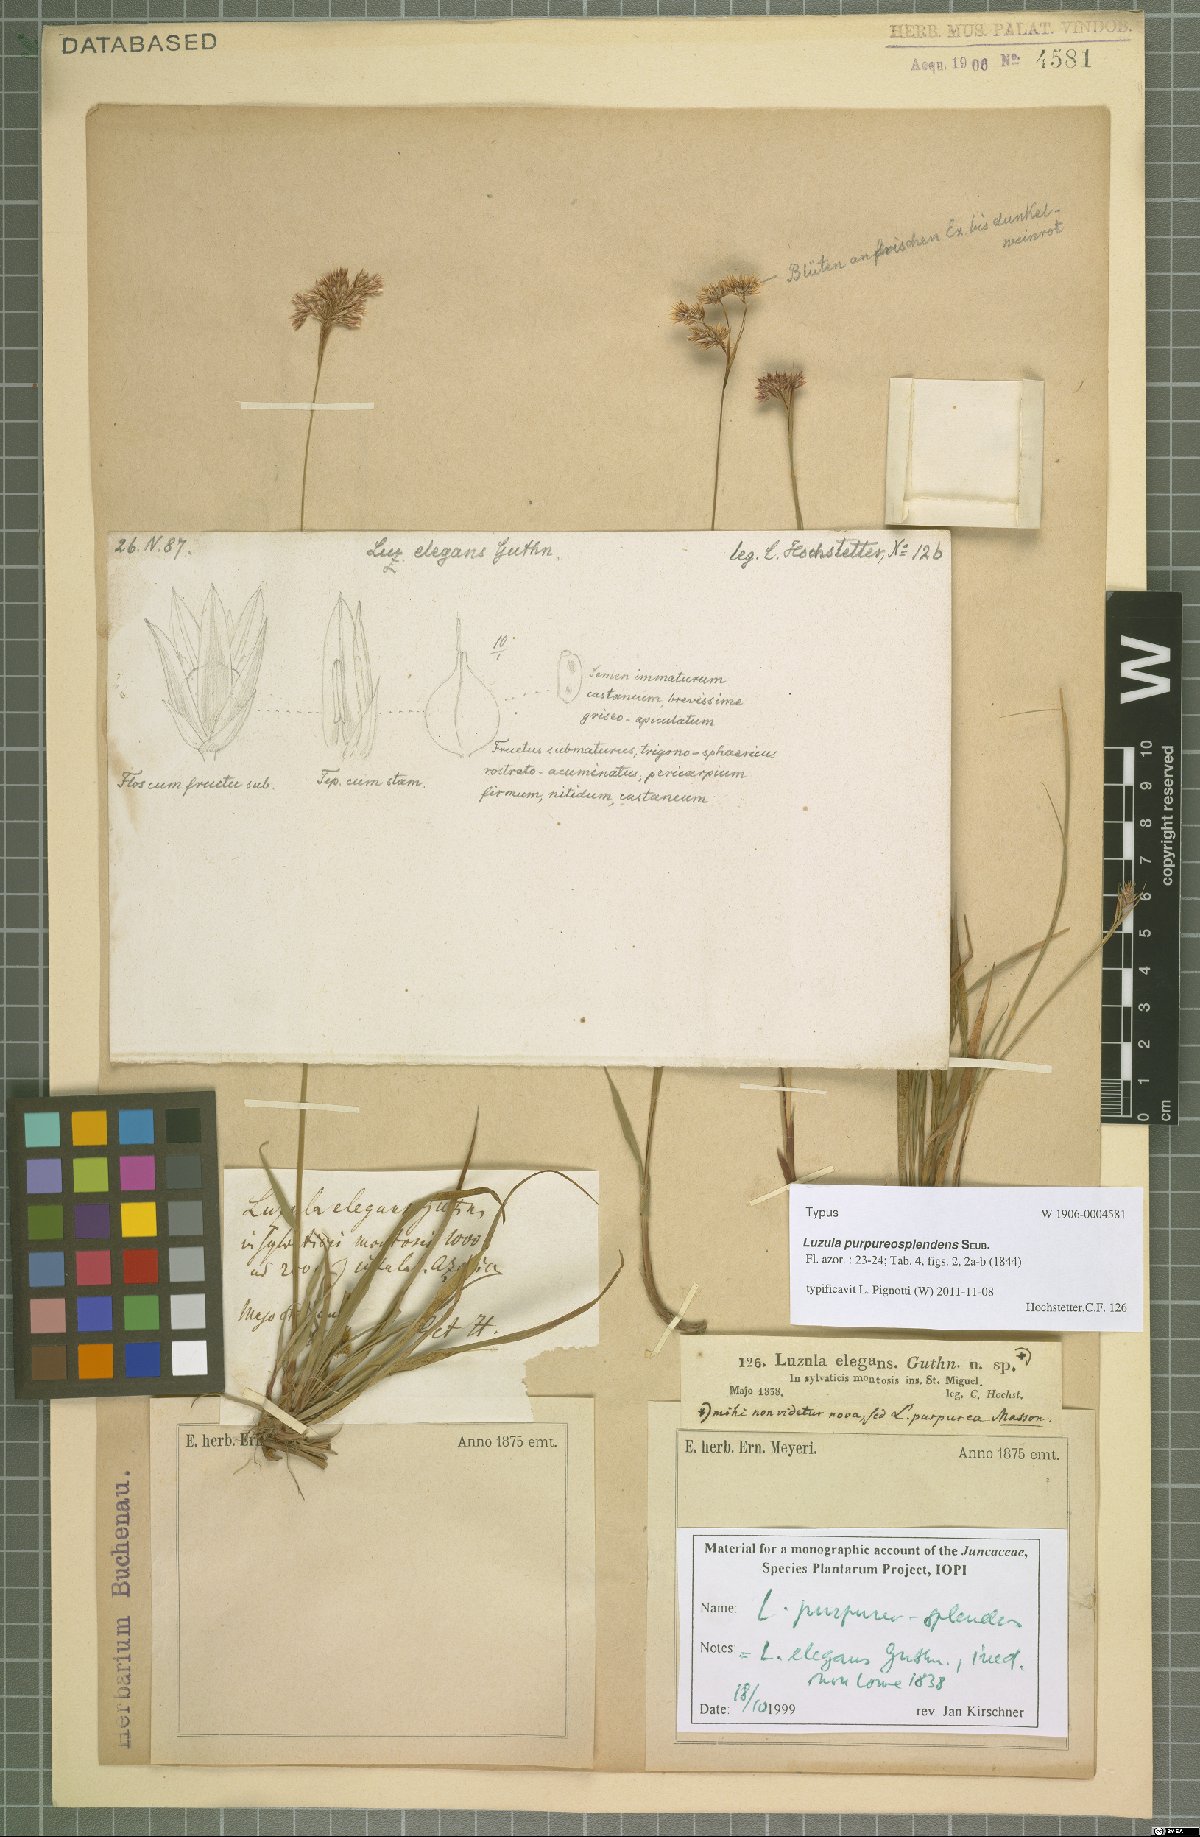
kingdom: Plantae
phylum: Tracheophyta
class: Liliopsida
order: Poales
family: Juncaceae
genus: Luzula
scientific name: Luzula purpureosplendens
